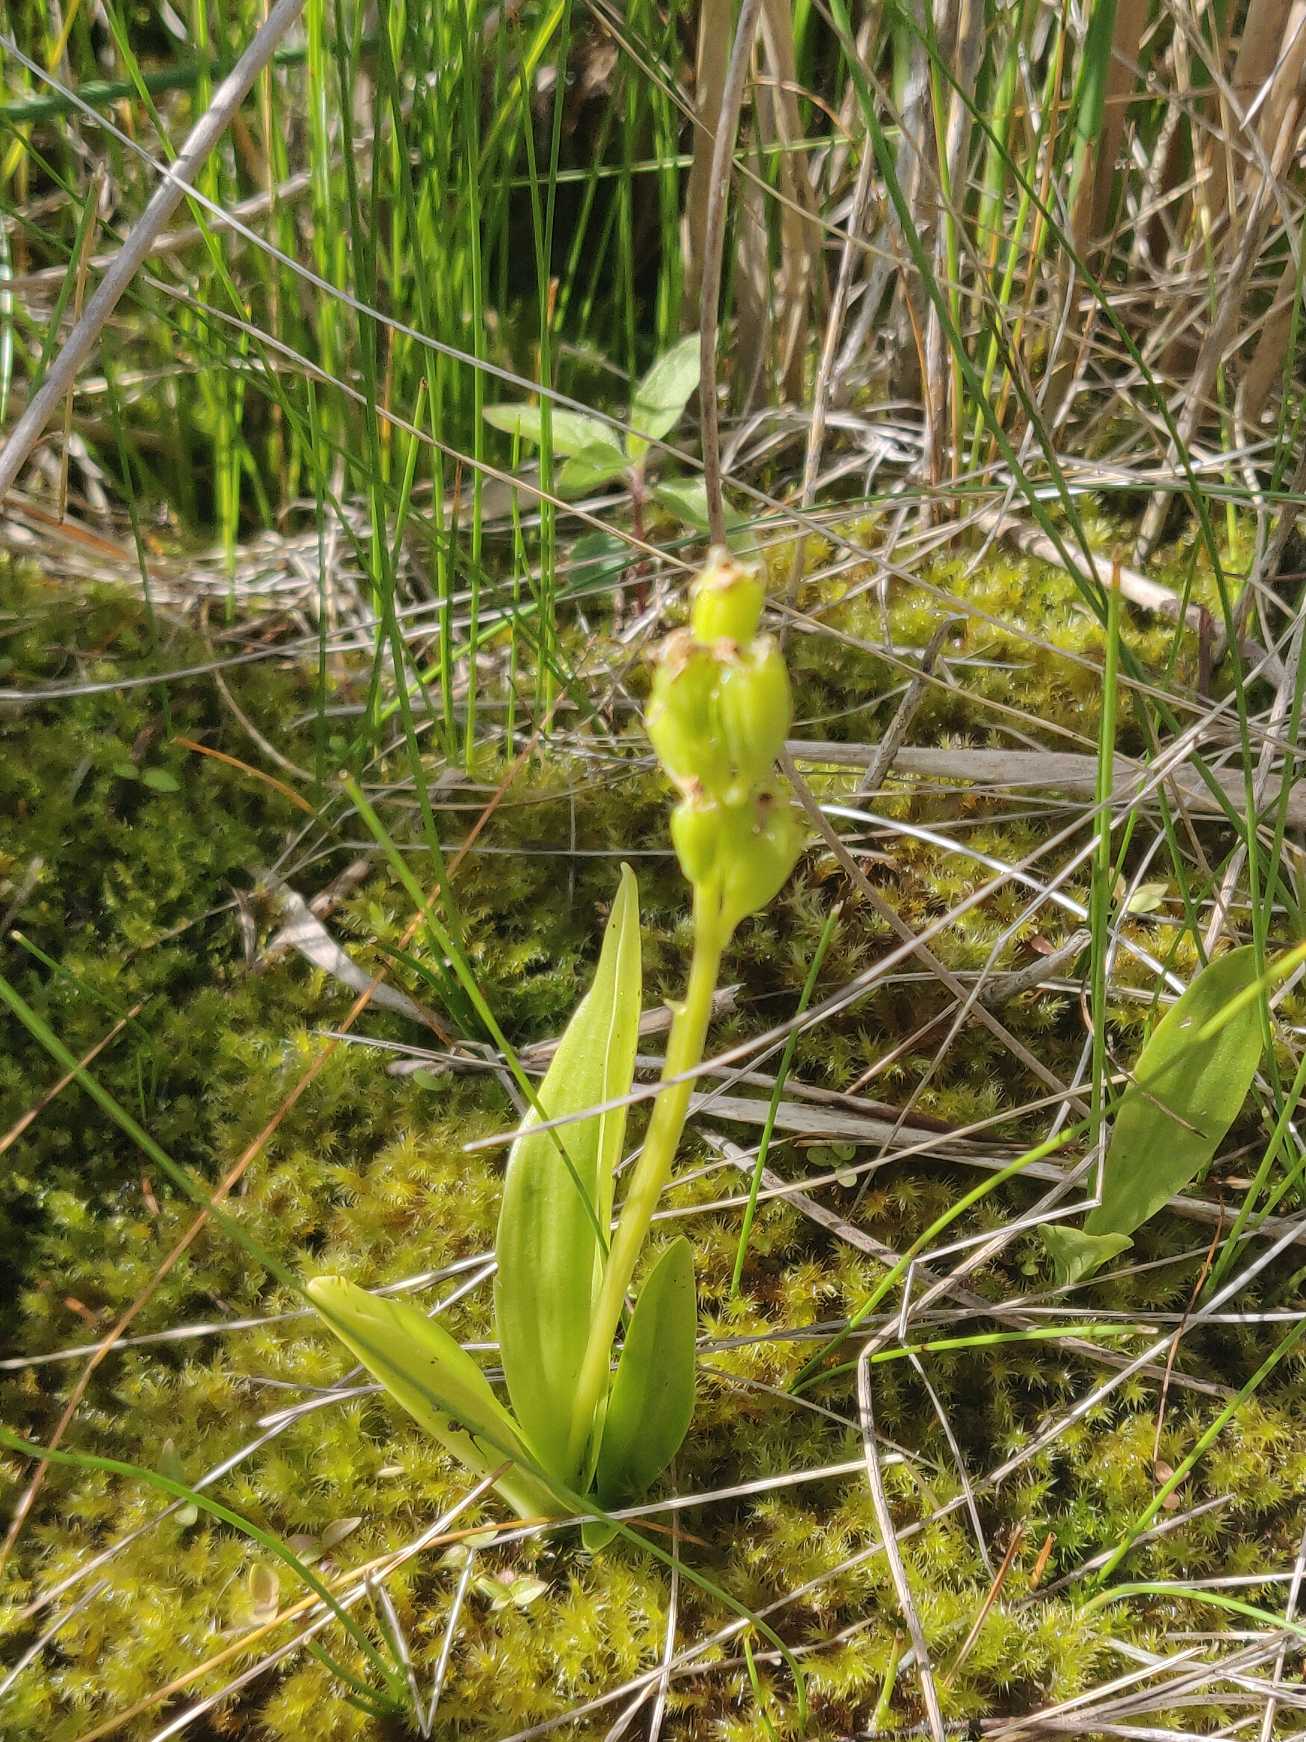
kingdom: Animalia
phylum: Arthropoda
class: Insecta
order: Coleoptera
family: Curculionidae
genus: Liparis
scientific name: Liparis loeselii
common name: Mygblomst
